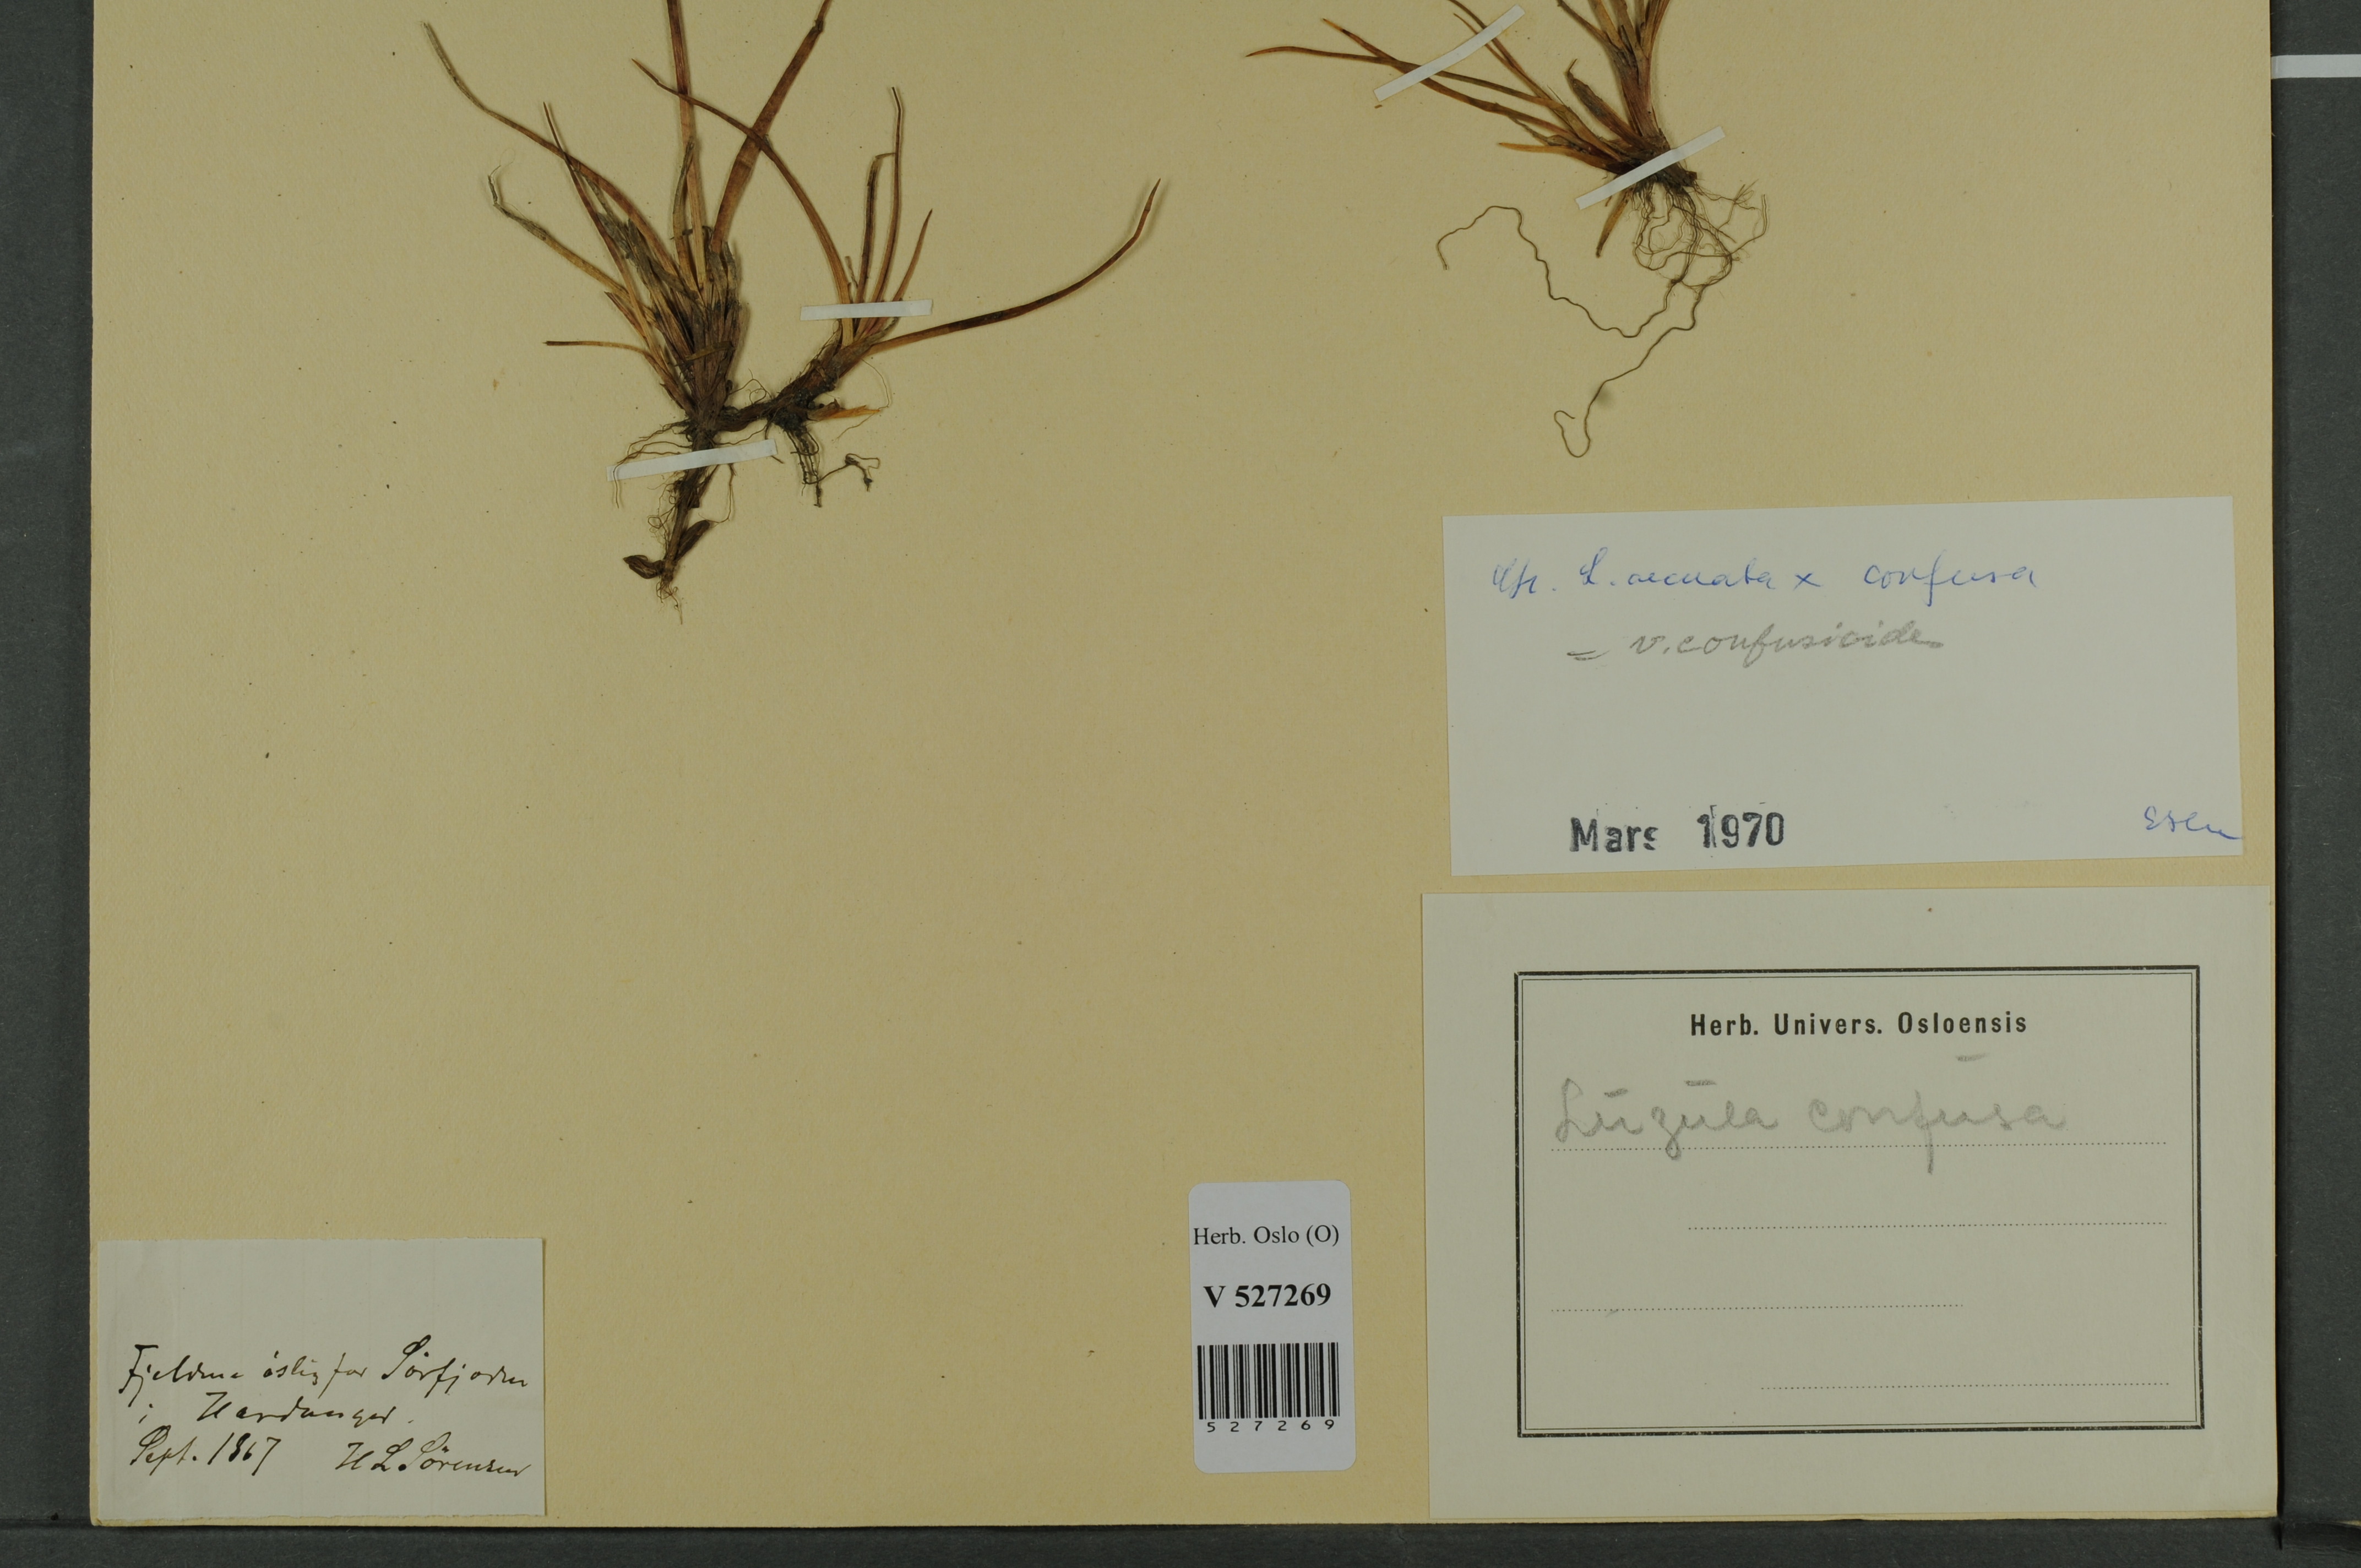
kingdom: Plantae
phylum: Tracheophyta
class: Liliopsida
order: Poales
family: Juncaceae
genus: Luzula
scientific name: Luzula arcuata
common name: Curved wood-rush
